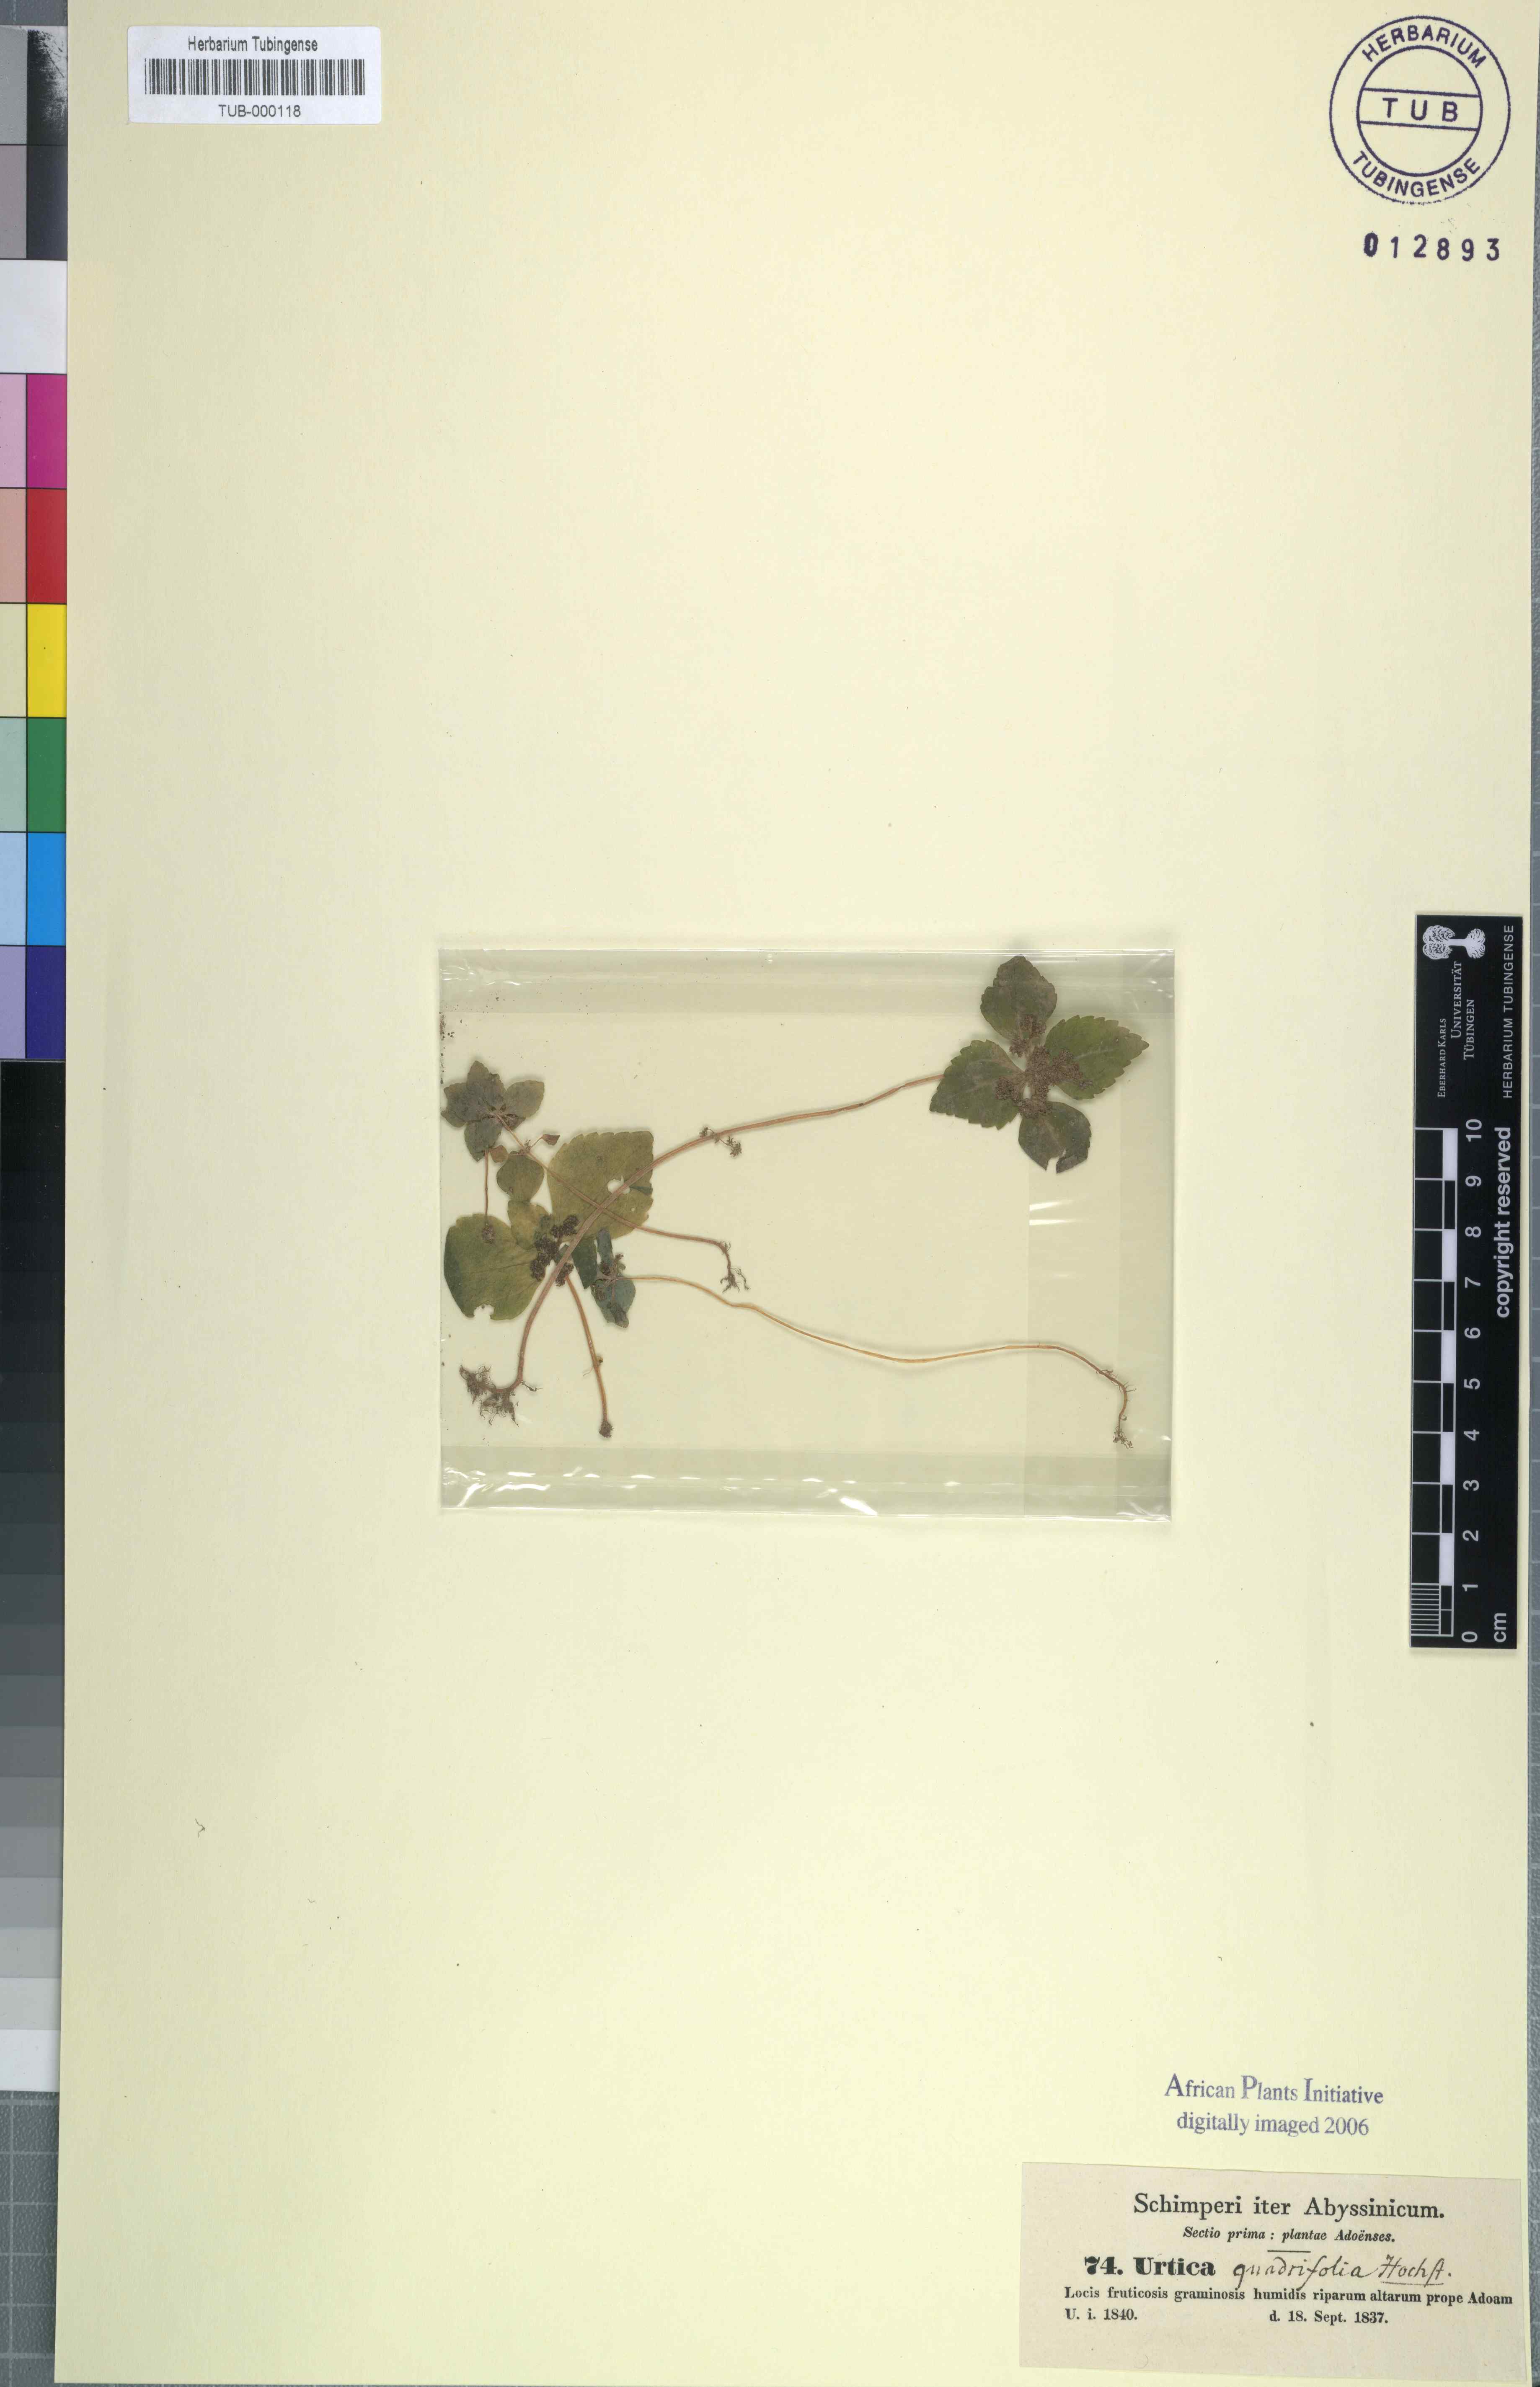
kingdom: Plantae
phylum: Tracheophyta
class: Magnoliopsida
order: Rosales
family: Urticaceae
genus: Pilea
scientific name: Pilea tetraphylla
